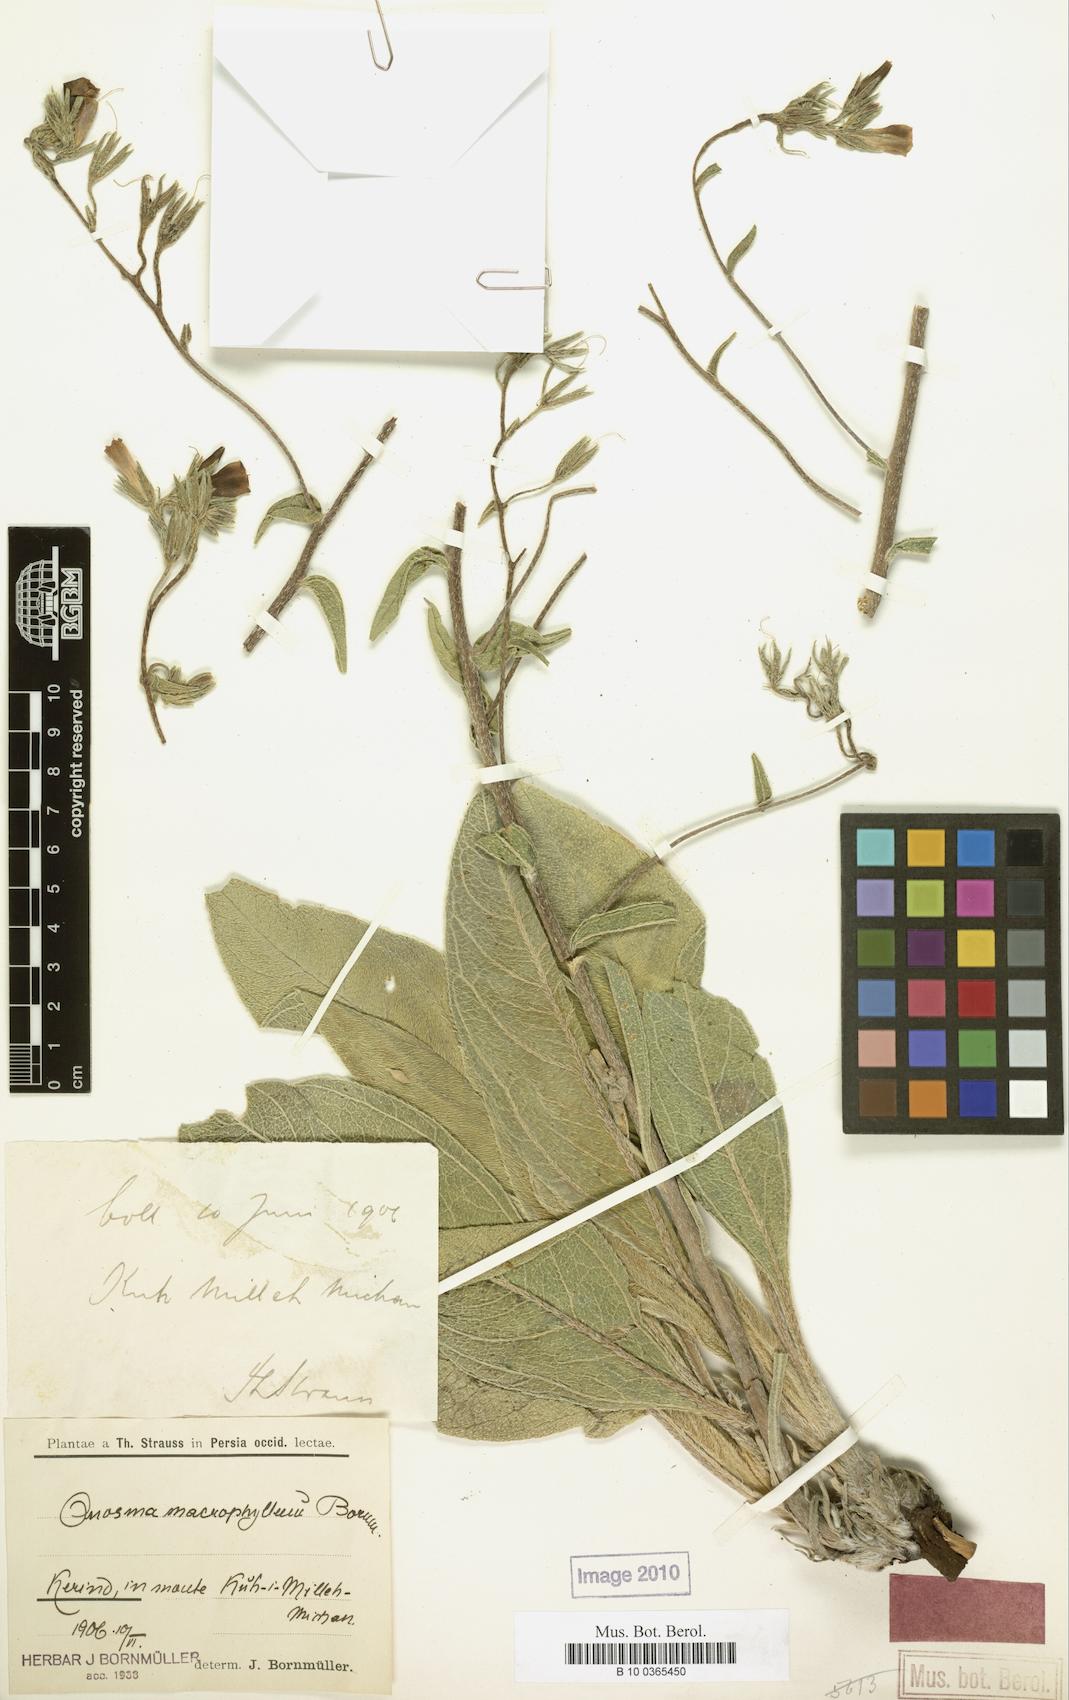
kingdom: Plantae
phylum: Tracheophyta
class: Magnoliopsida
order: Boraginales
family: Boraginaceae
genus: Onosma
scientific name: Onosma macrophylla
